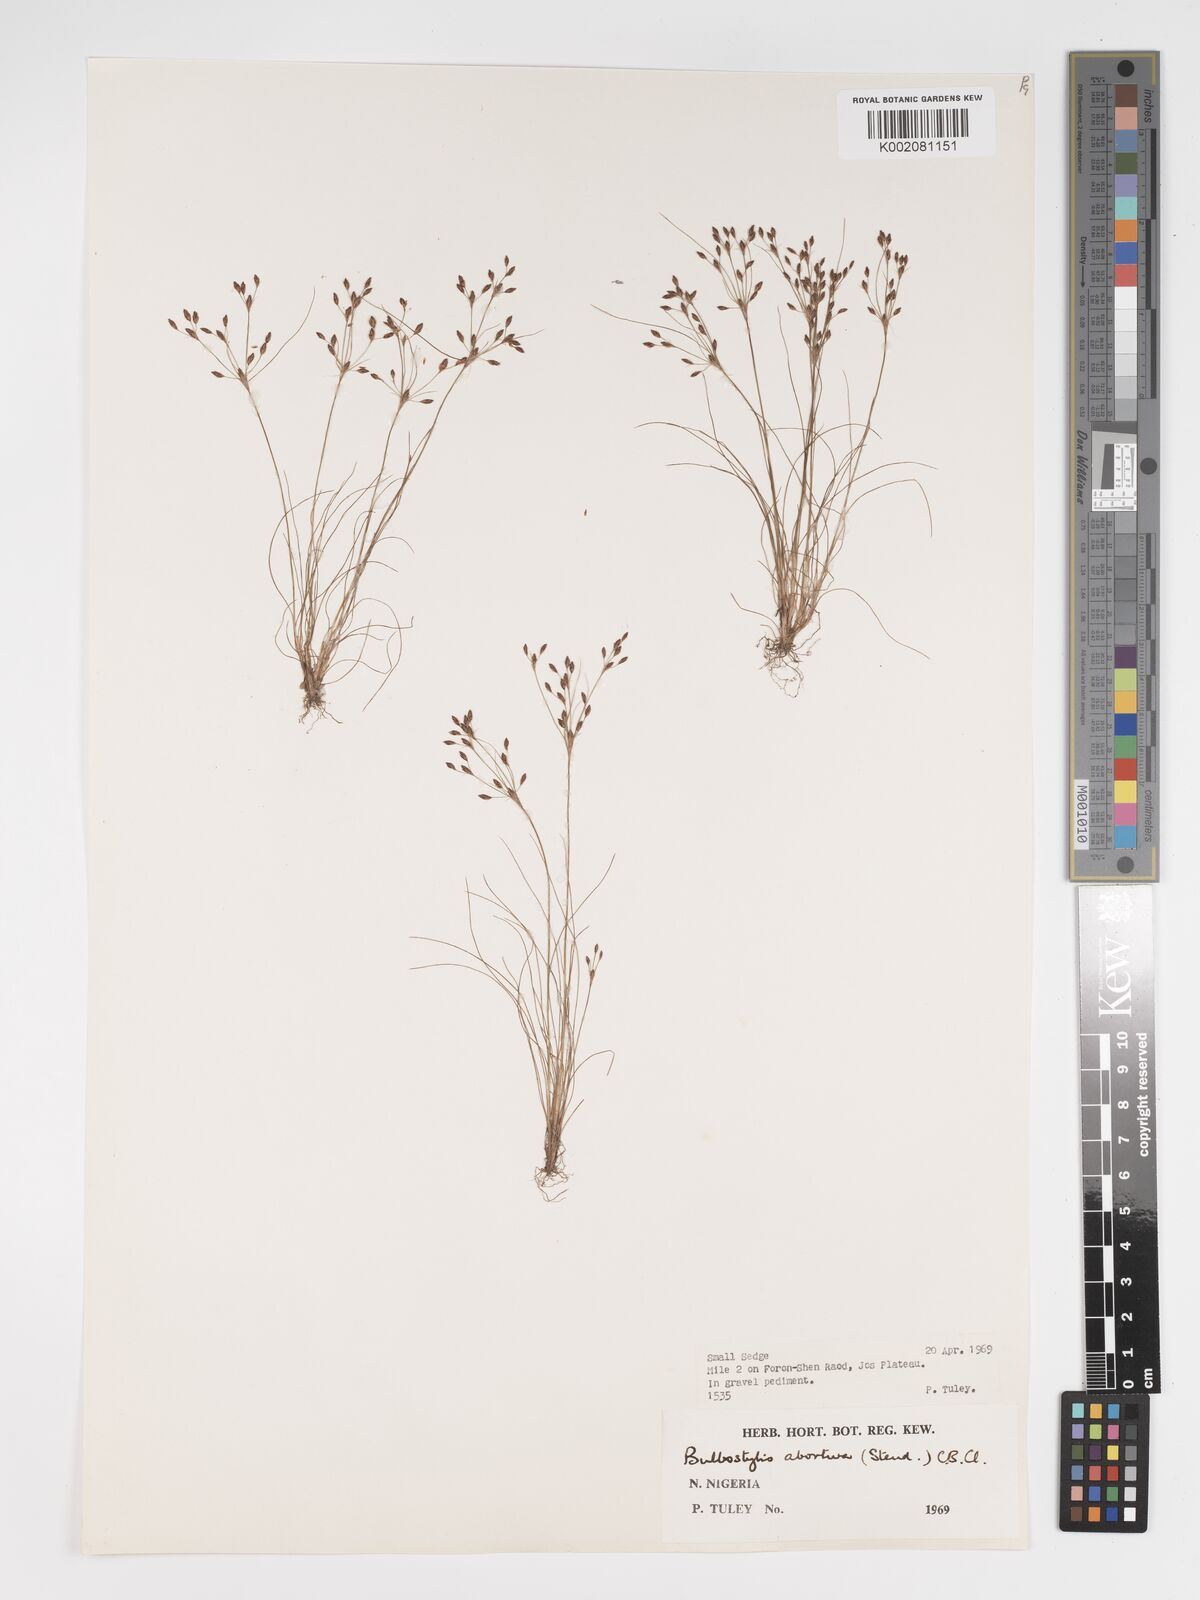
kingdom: Plantae
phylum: Tracheophyta
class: Liliopsida
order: Poales
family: Cyperaceae
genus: Bulbostylis
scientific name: Bulbostylis abortiva
